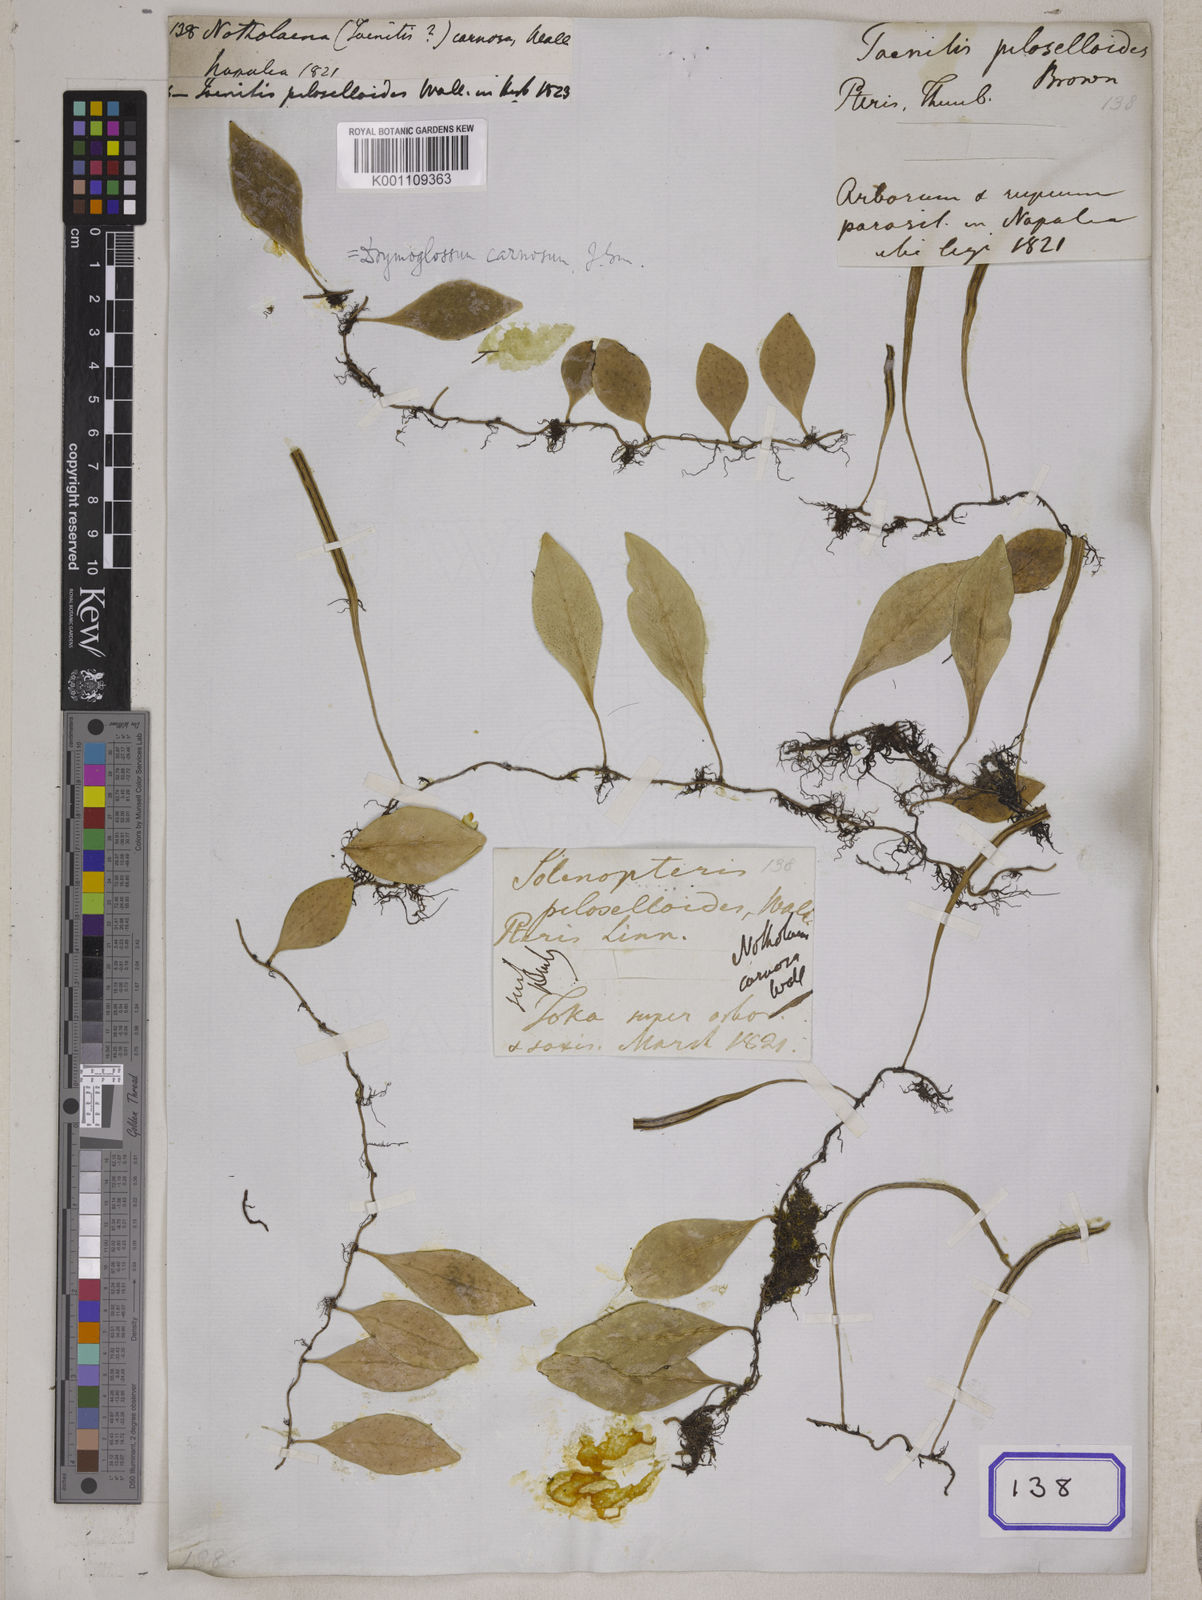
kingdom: Plantae
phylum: Tracheophyta
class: Polypodiopsida
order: Polypodiales
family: Polypodiaceae
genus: Lepisorus
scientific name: Lepisorus carnosus
